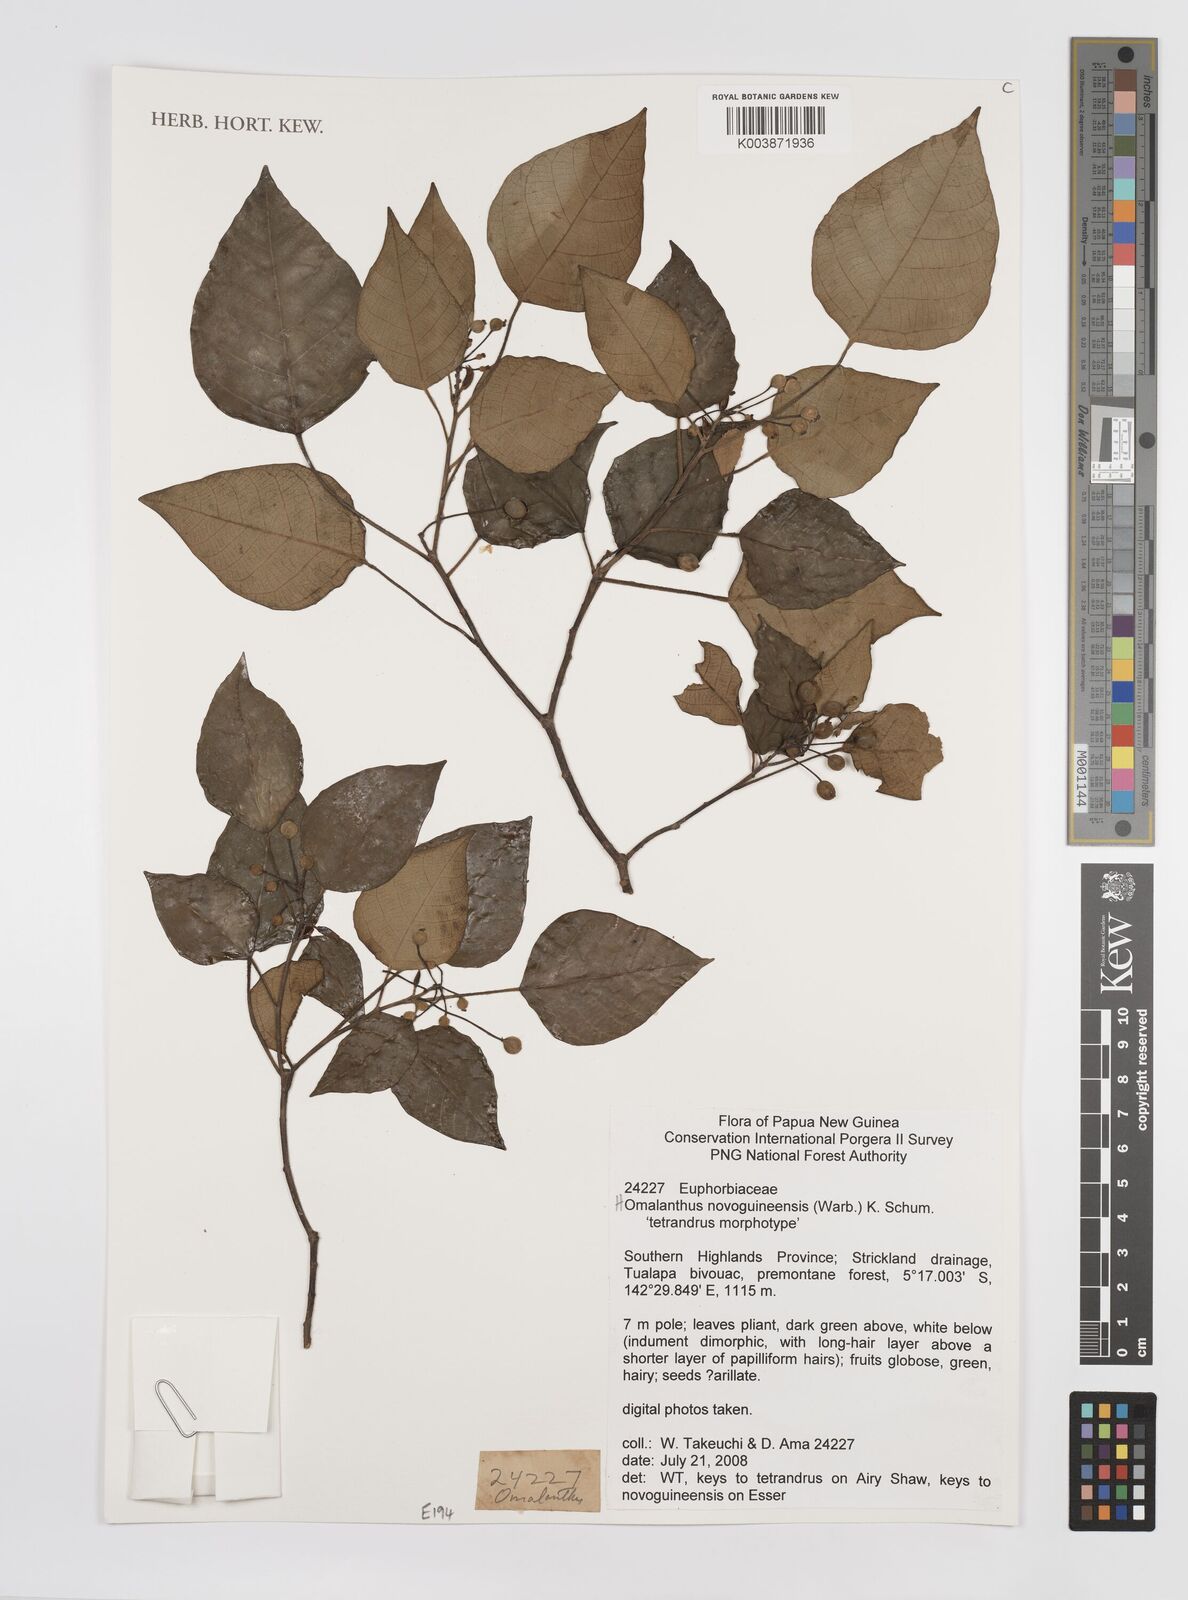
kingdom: Plantae
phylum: Tracheophyta
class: Magnoliopsida
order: Malpighiales
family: Euphorbiaceae
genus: Homalanthus
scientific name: Homalanthus novoguineensis
